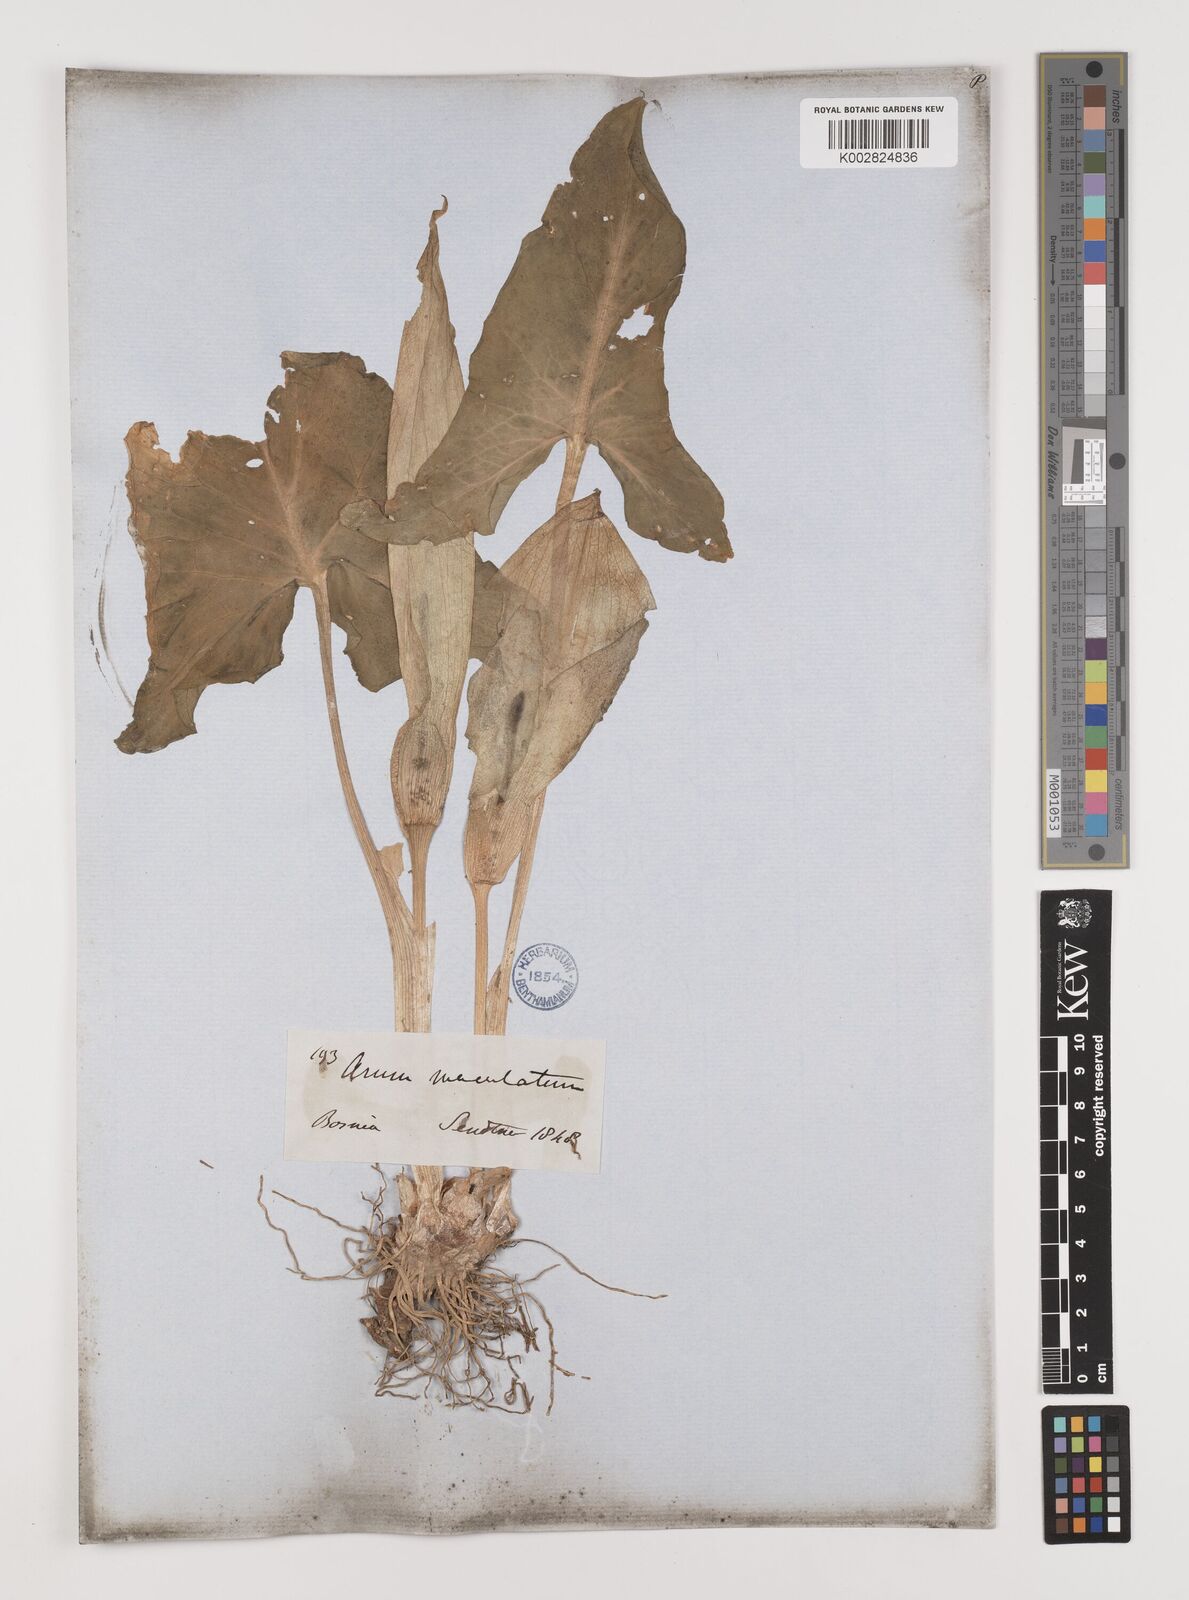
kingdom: Plantae
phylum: Tracheophyta
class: Liliopsida
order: Alismatales
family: Araceae
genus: Arum
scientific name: Arum maculatum
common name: Lords-and-ladies
